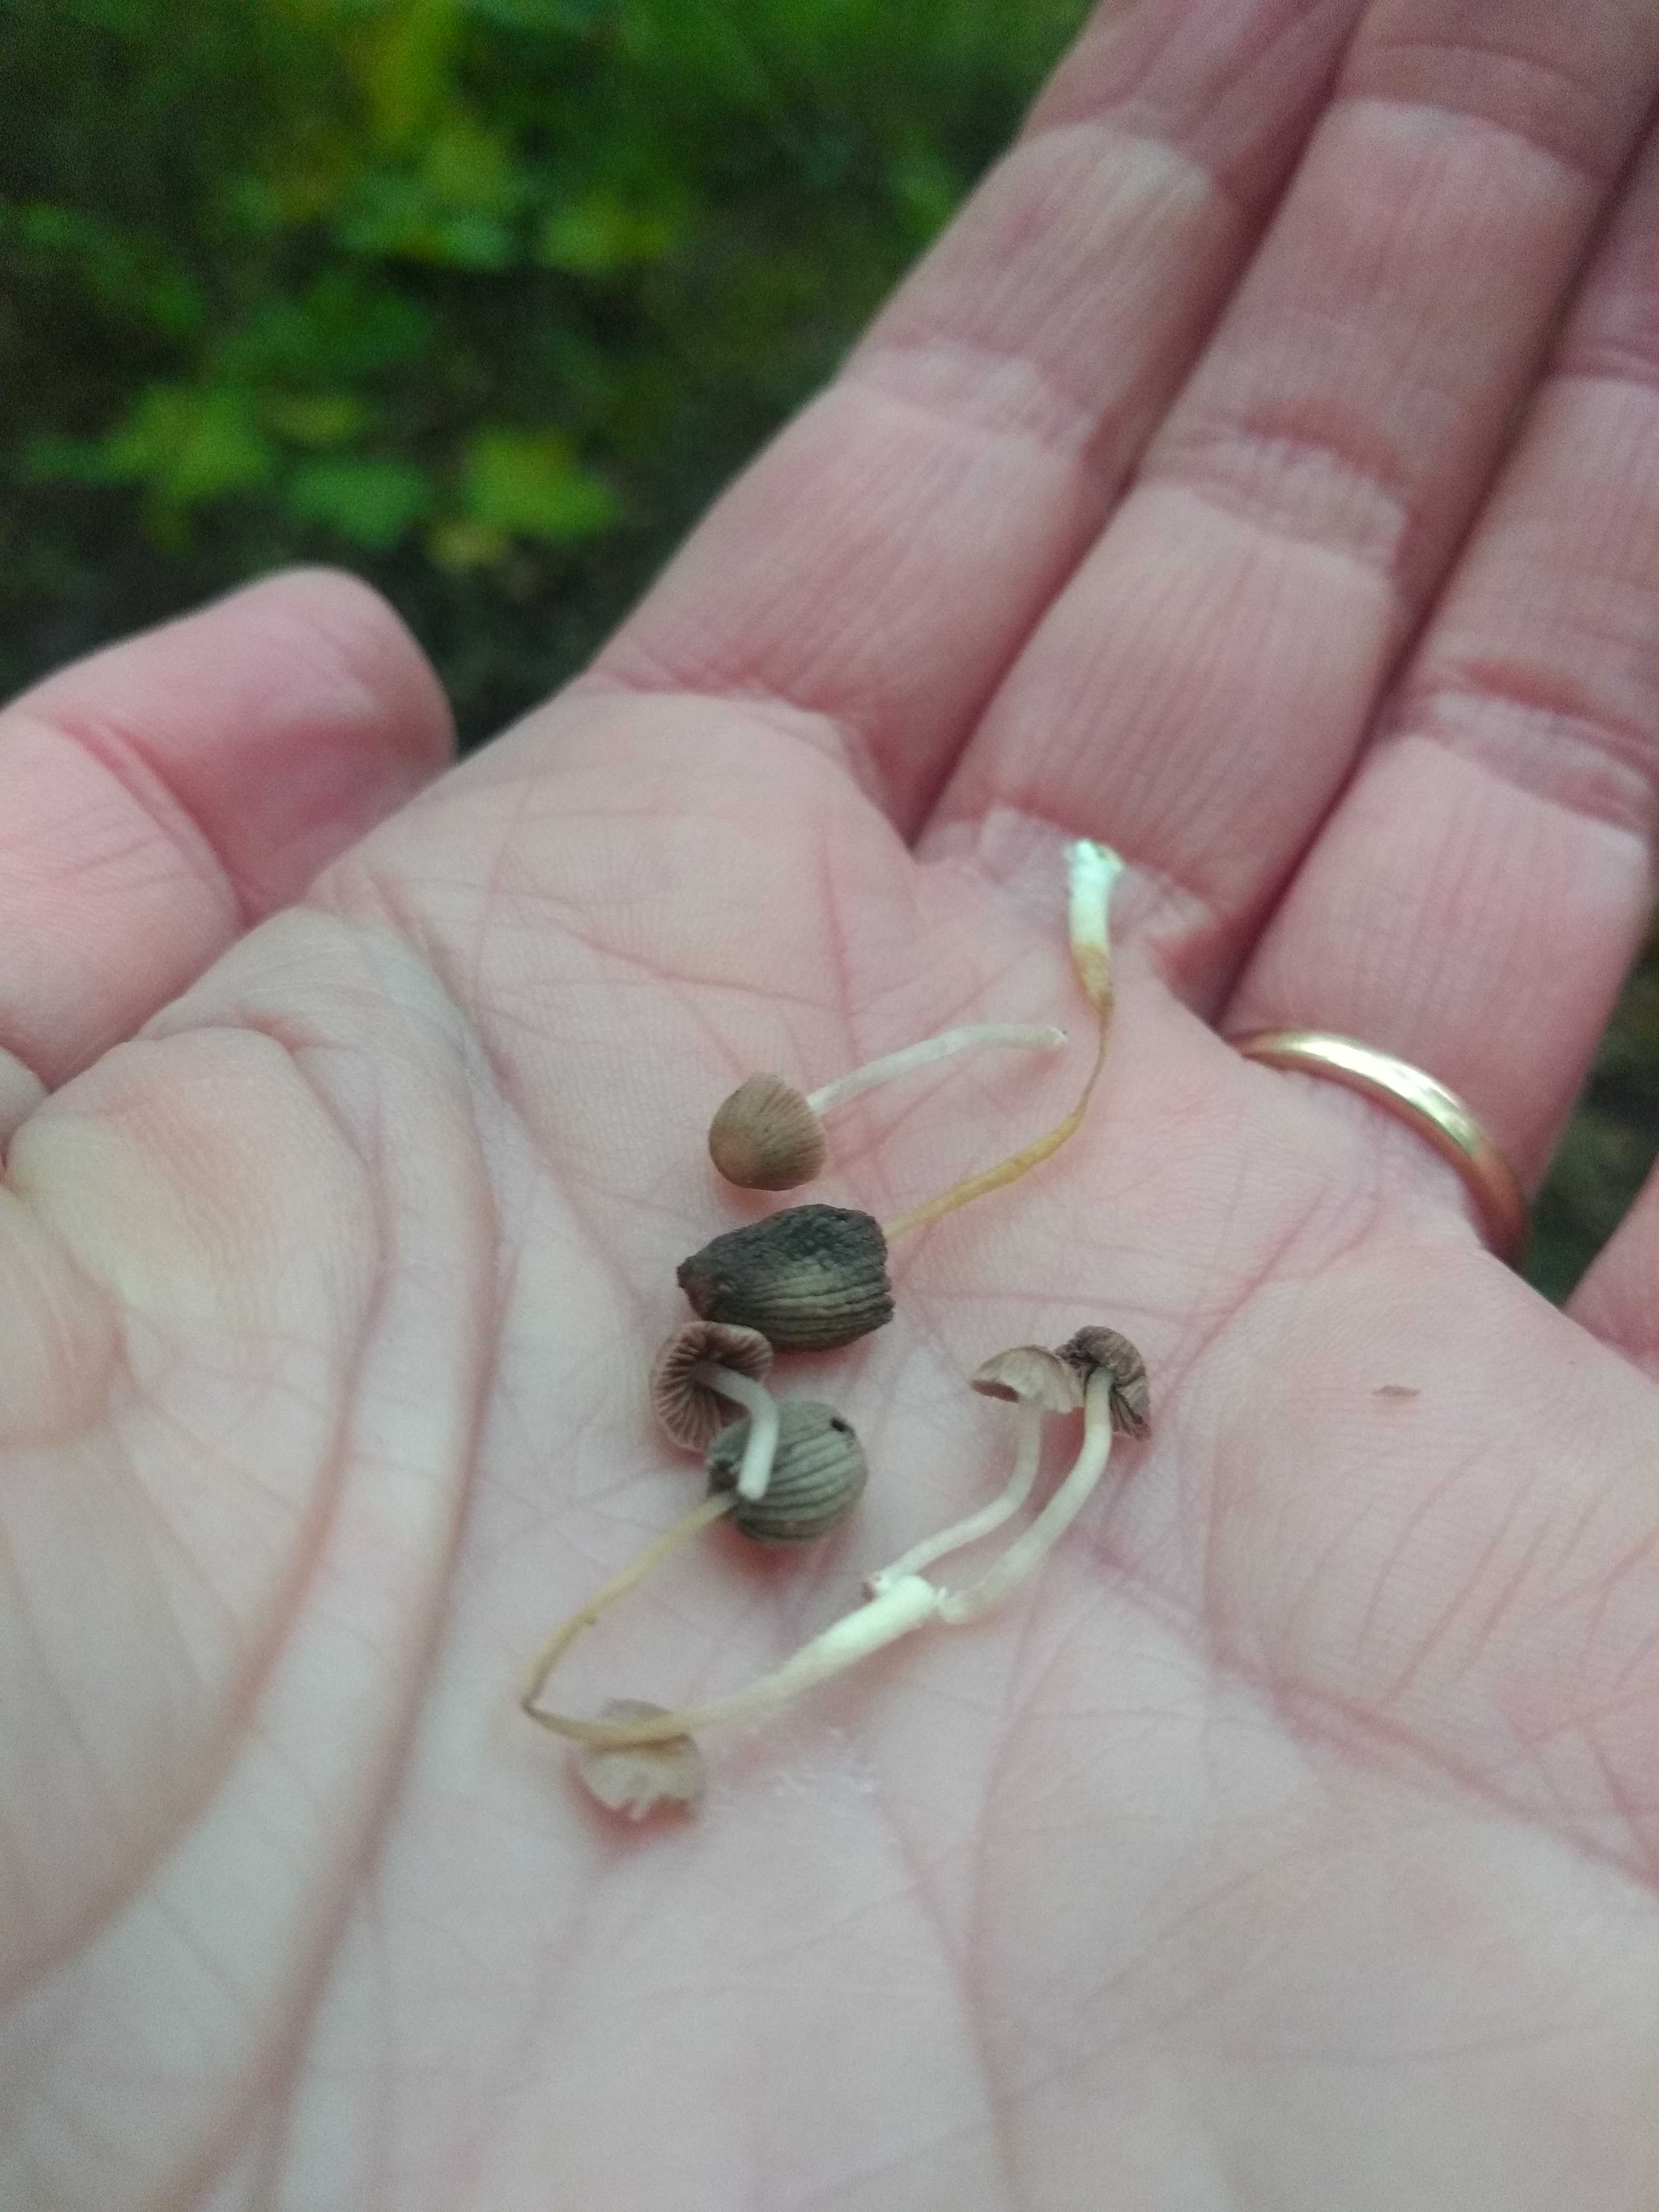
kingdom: Fungi
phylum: Basidiomycota
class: Agaricomycetes
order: Agaricales
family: Psathyrellaceae
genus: Coprinellus
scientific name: Coprinellus disseminatus
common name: bredsået blækhat
